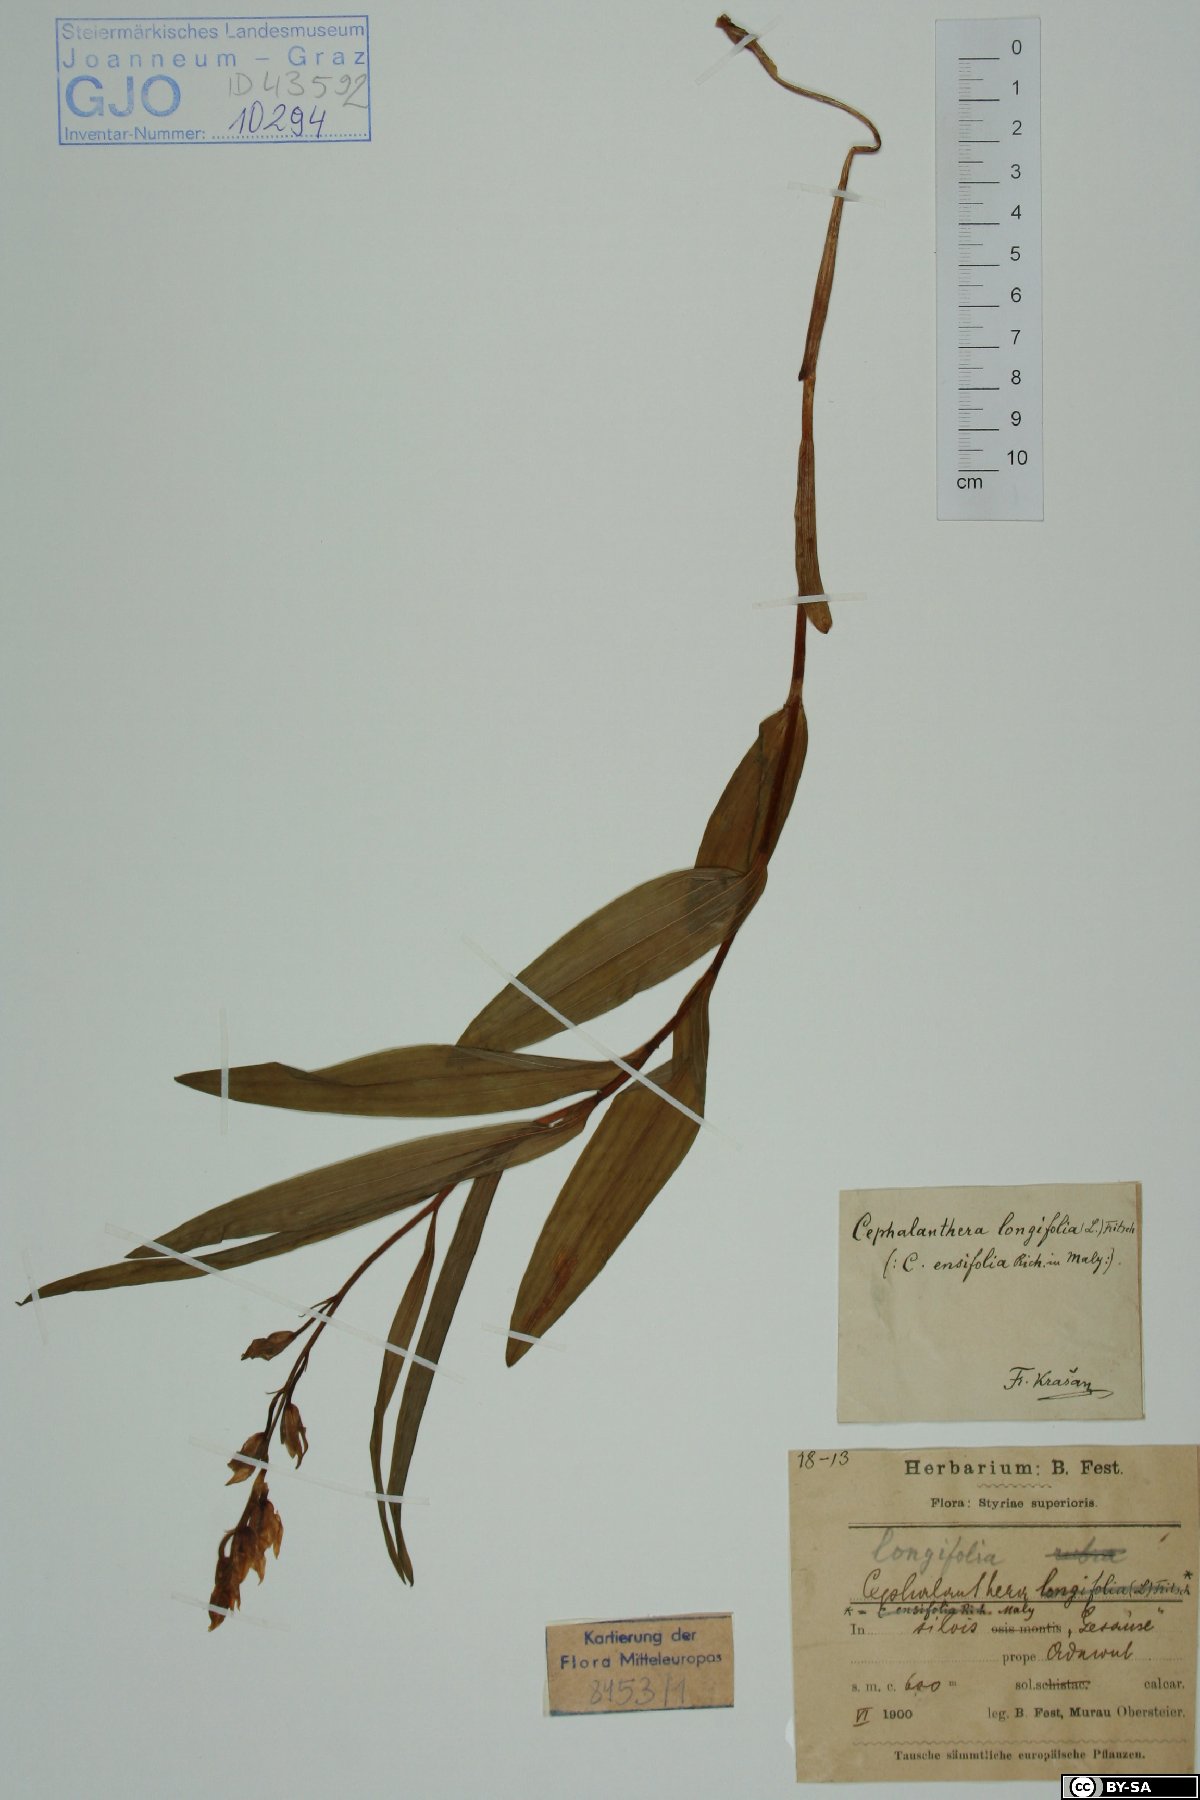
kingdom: Plantae
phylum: Tracheophyta
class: Liliopsida
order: Asparagales
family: Orchidaceae
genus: Cephalanthera
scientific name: Cephalanthera longifolia
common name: Narrow-leaved helleborine
